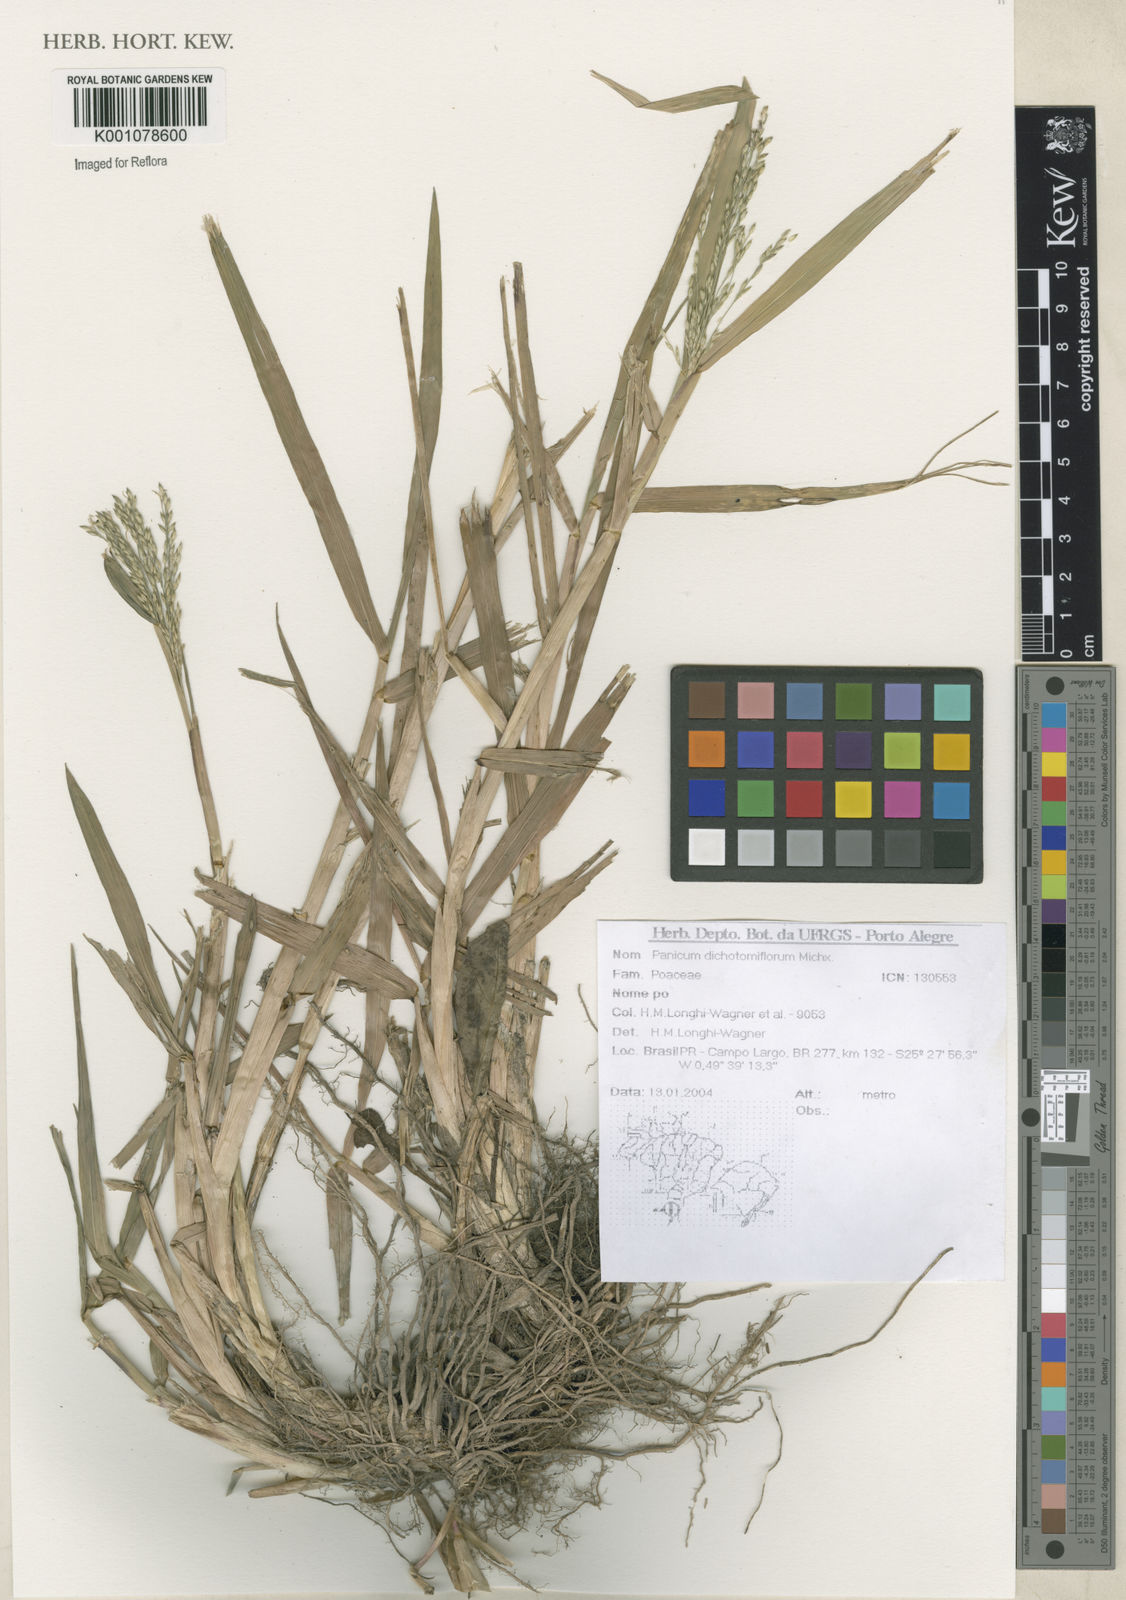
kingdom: Plantae
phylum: Tracheophyta
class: Liliopsida
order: Poales
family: Poaceae
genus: Panicum
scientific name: Panicum dichotomiflorum
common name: Autumn millet
